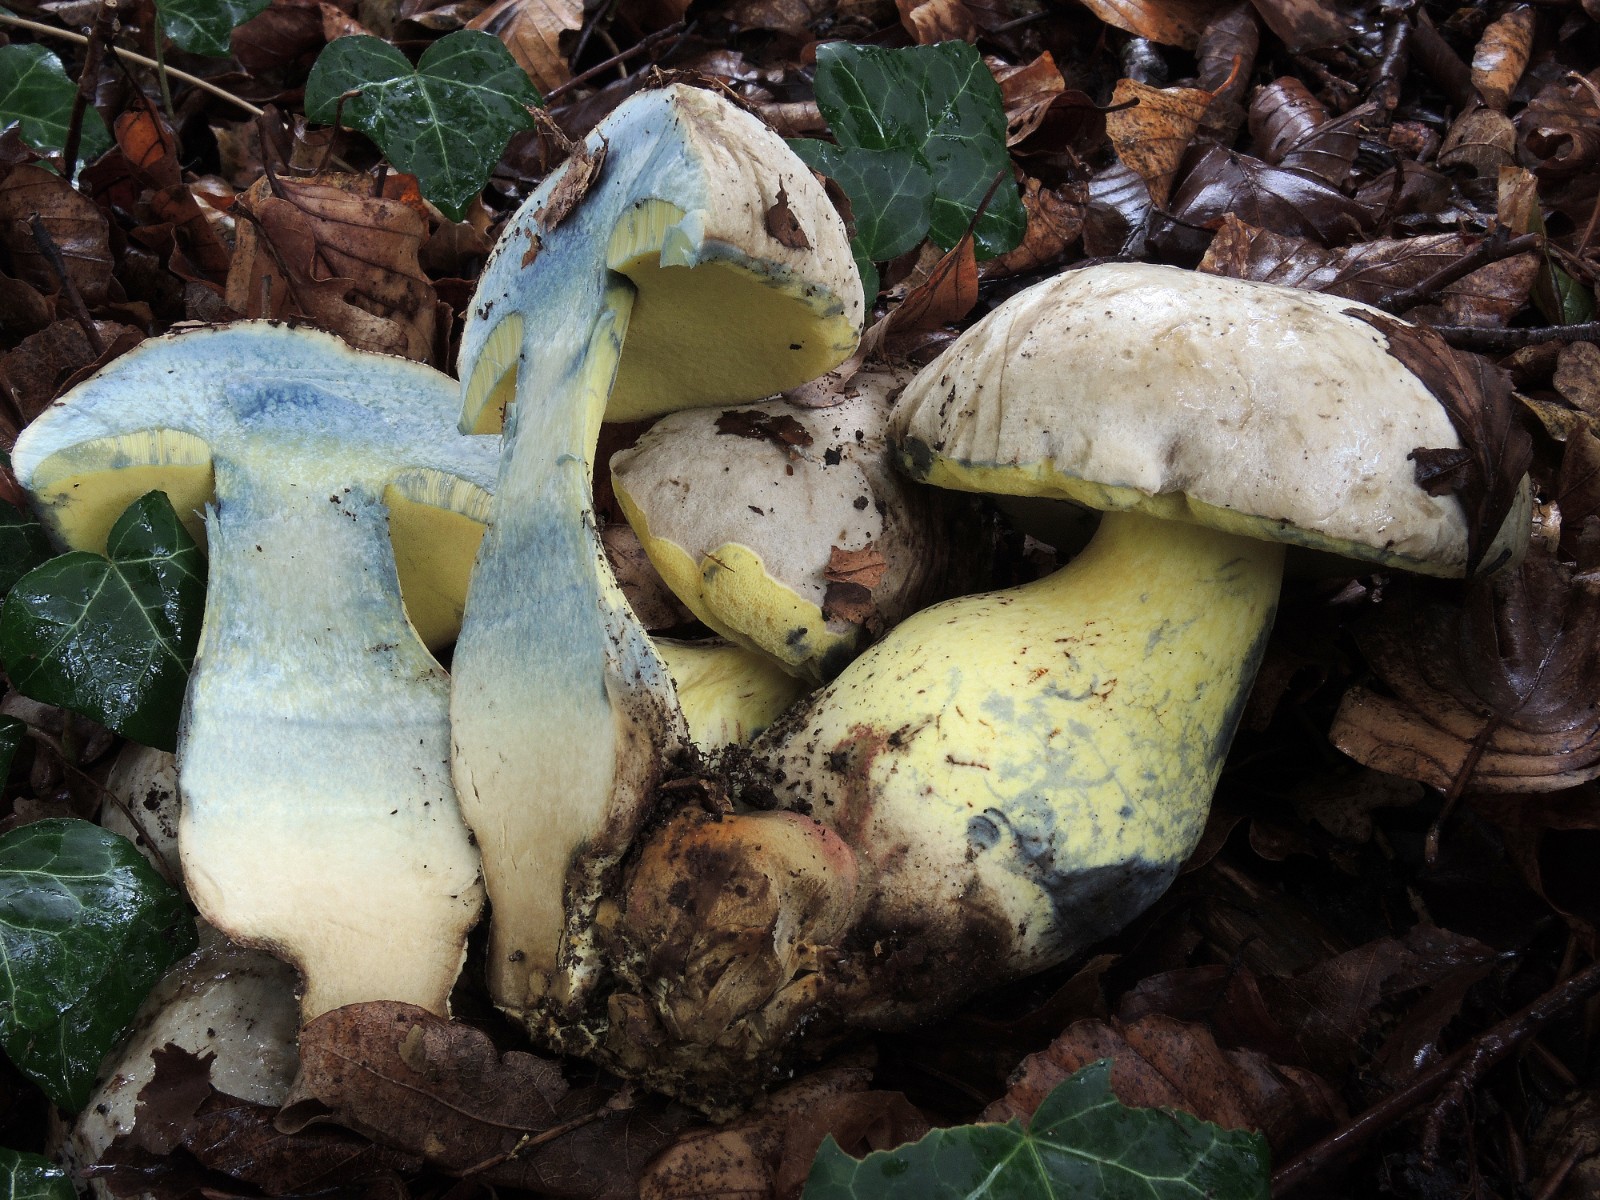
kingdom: Fungi
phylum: Basidiomycota
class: Agaricomycetes
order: Boletales
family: Boletaceae
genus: Caloboletus
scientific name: Caloboletus radicans
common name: rod-rørhat
